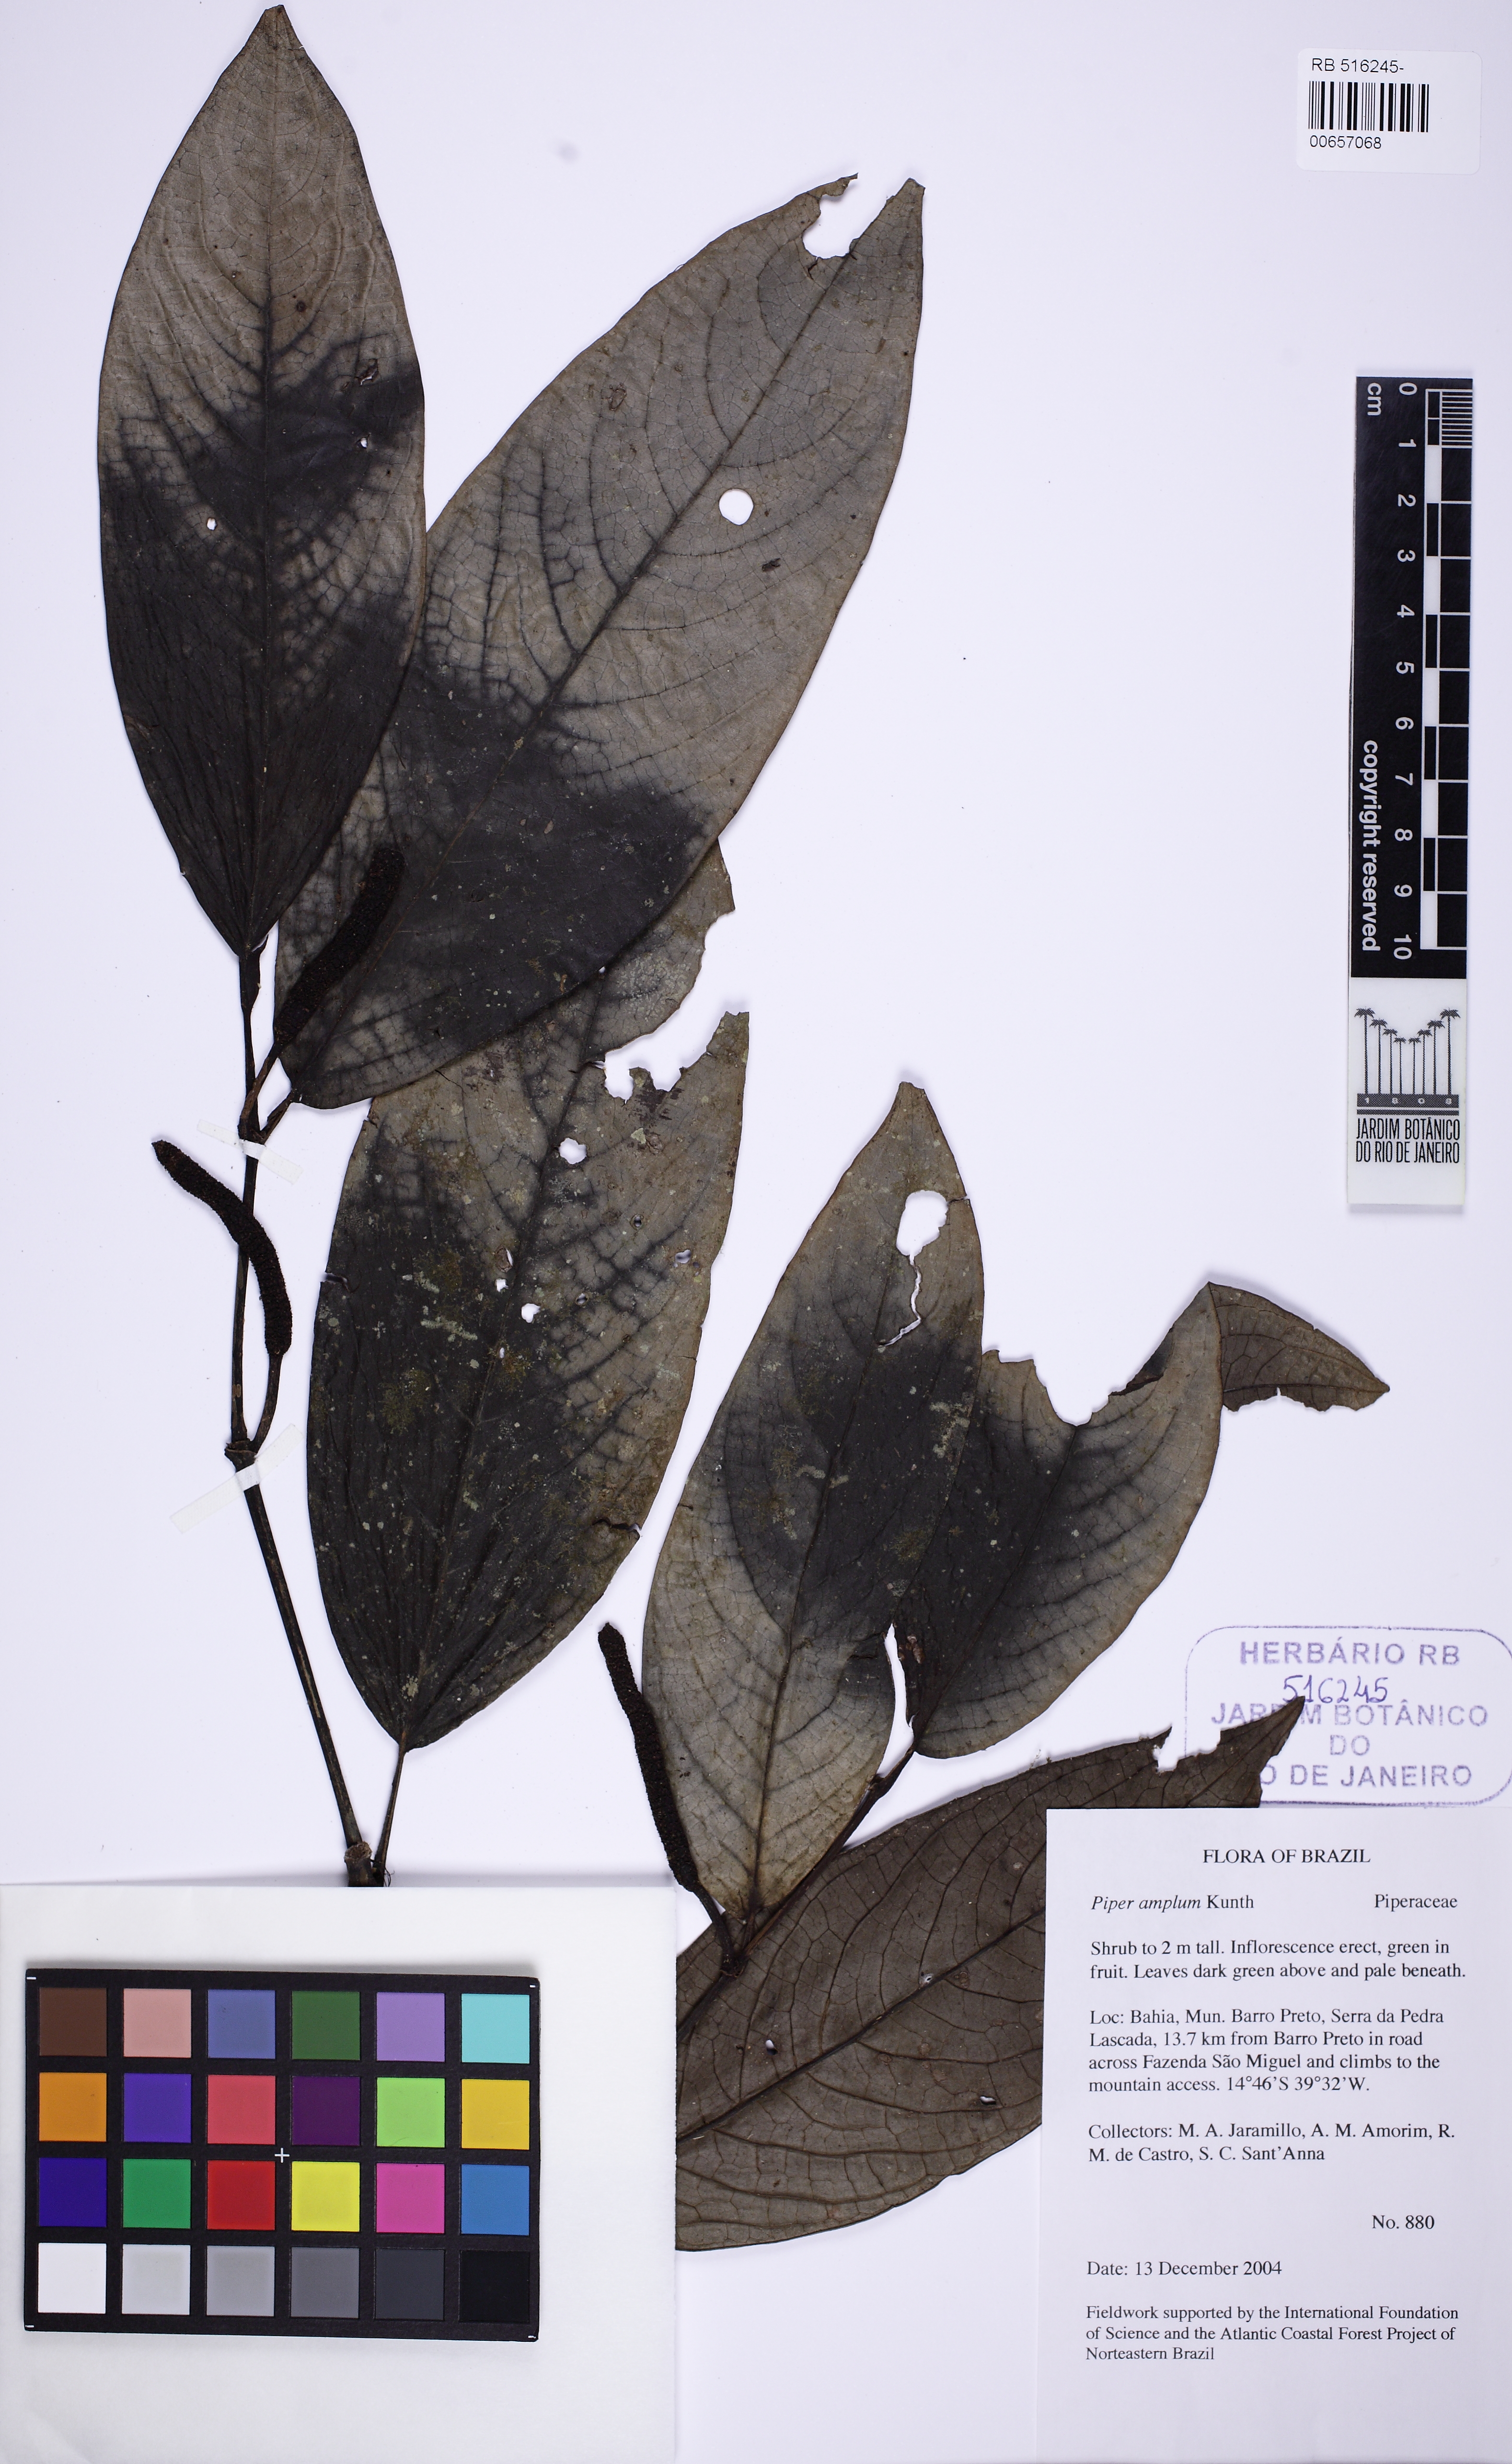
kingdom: Plantae
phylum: Tracheophyta
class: Magnoliopsida
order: Piperales
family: Piperaceae
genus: Piper
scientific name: Piper fluminense
